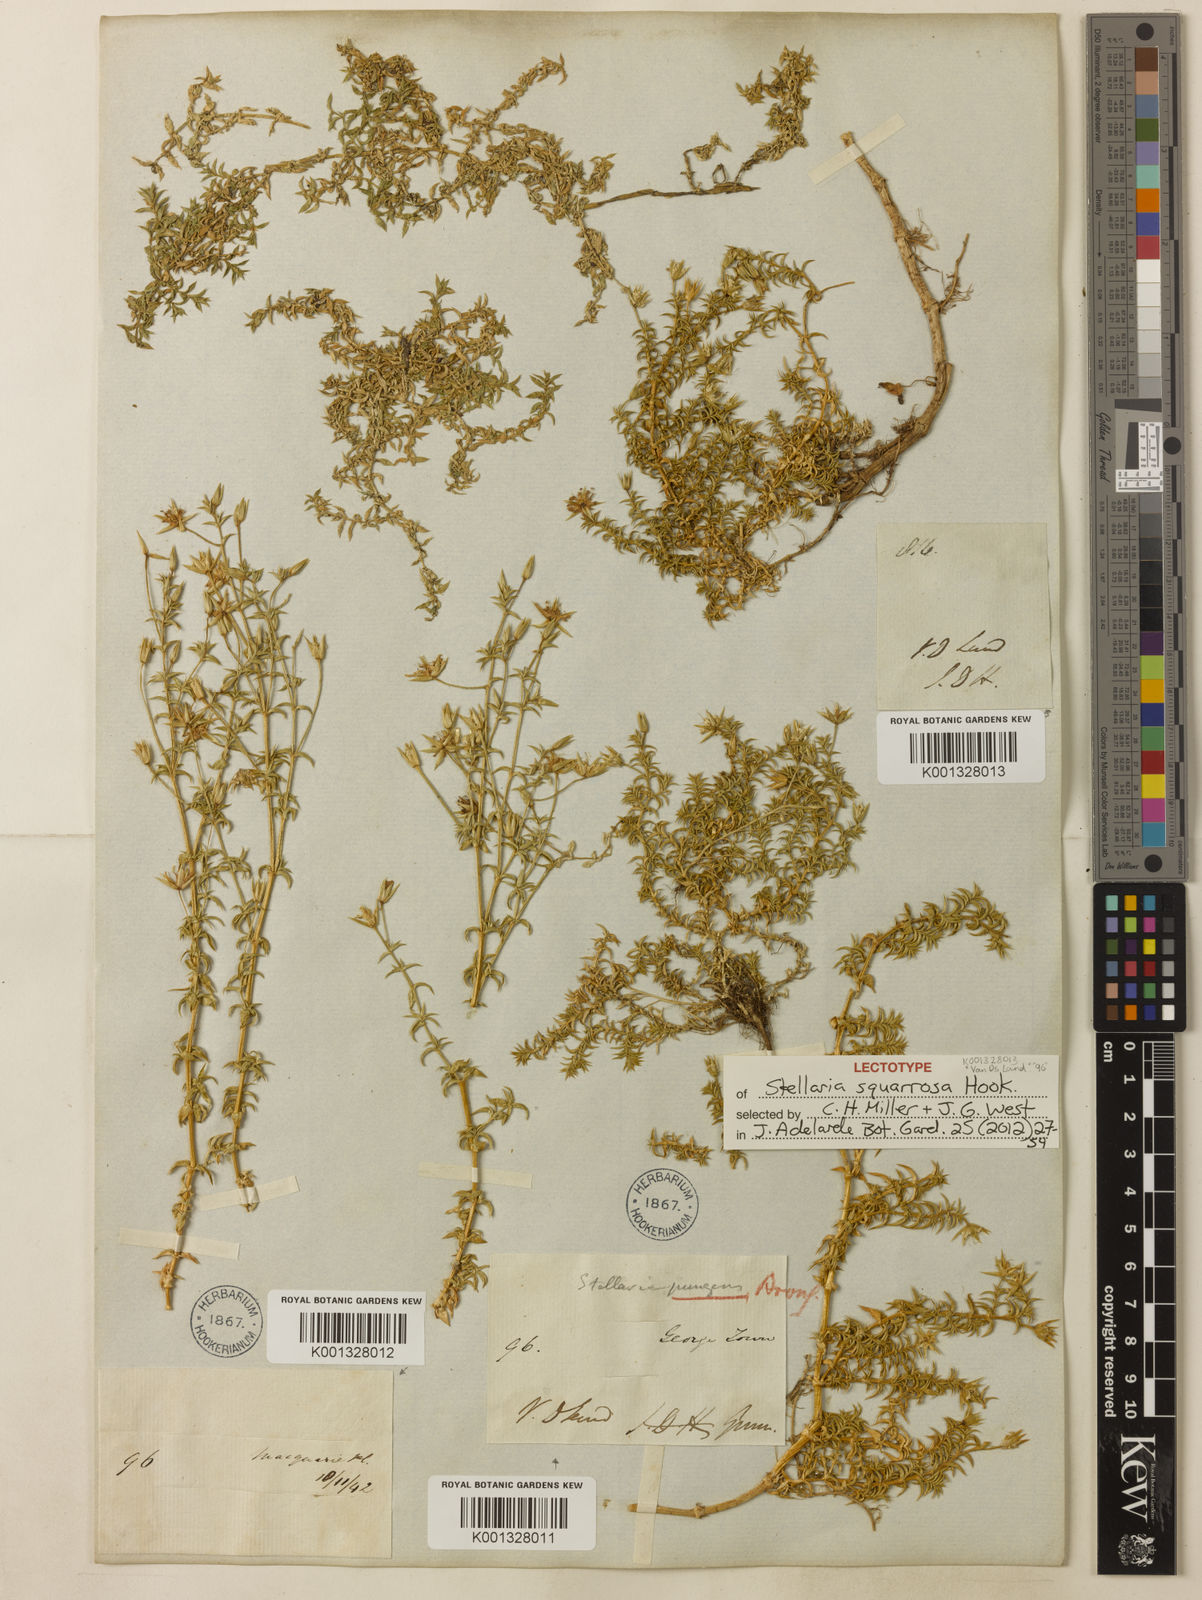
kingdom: Plantae
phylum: Tracheophyta
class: Magnoliopsida
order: Caryophyllales
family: Caryophyllaceae
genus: Stellaria
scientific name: Stellaria pungens
